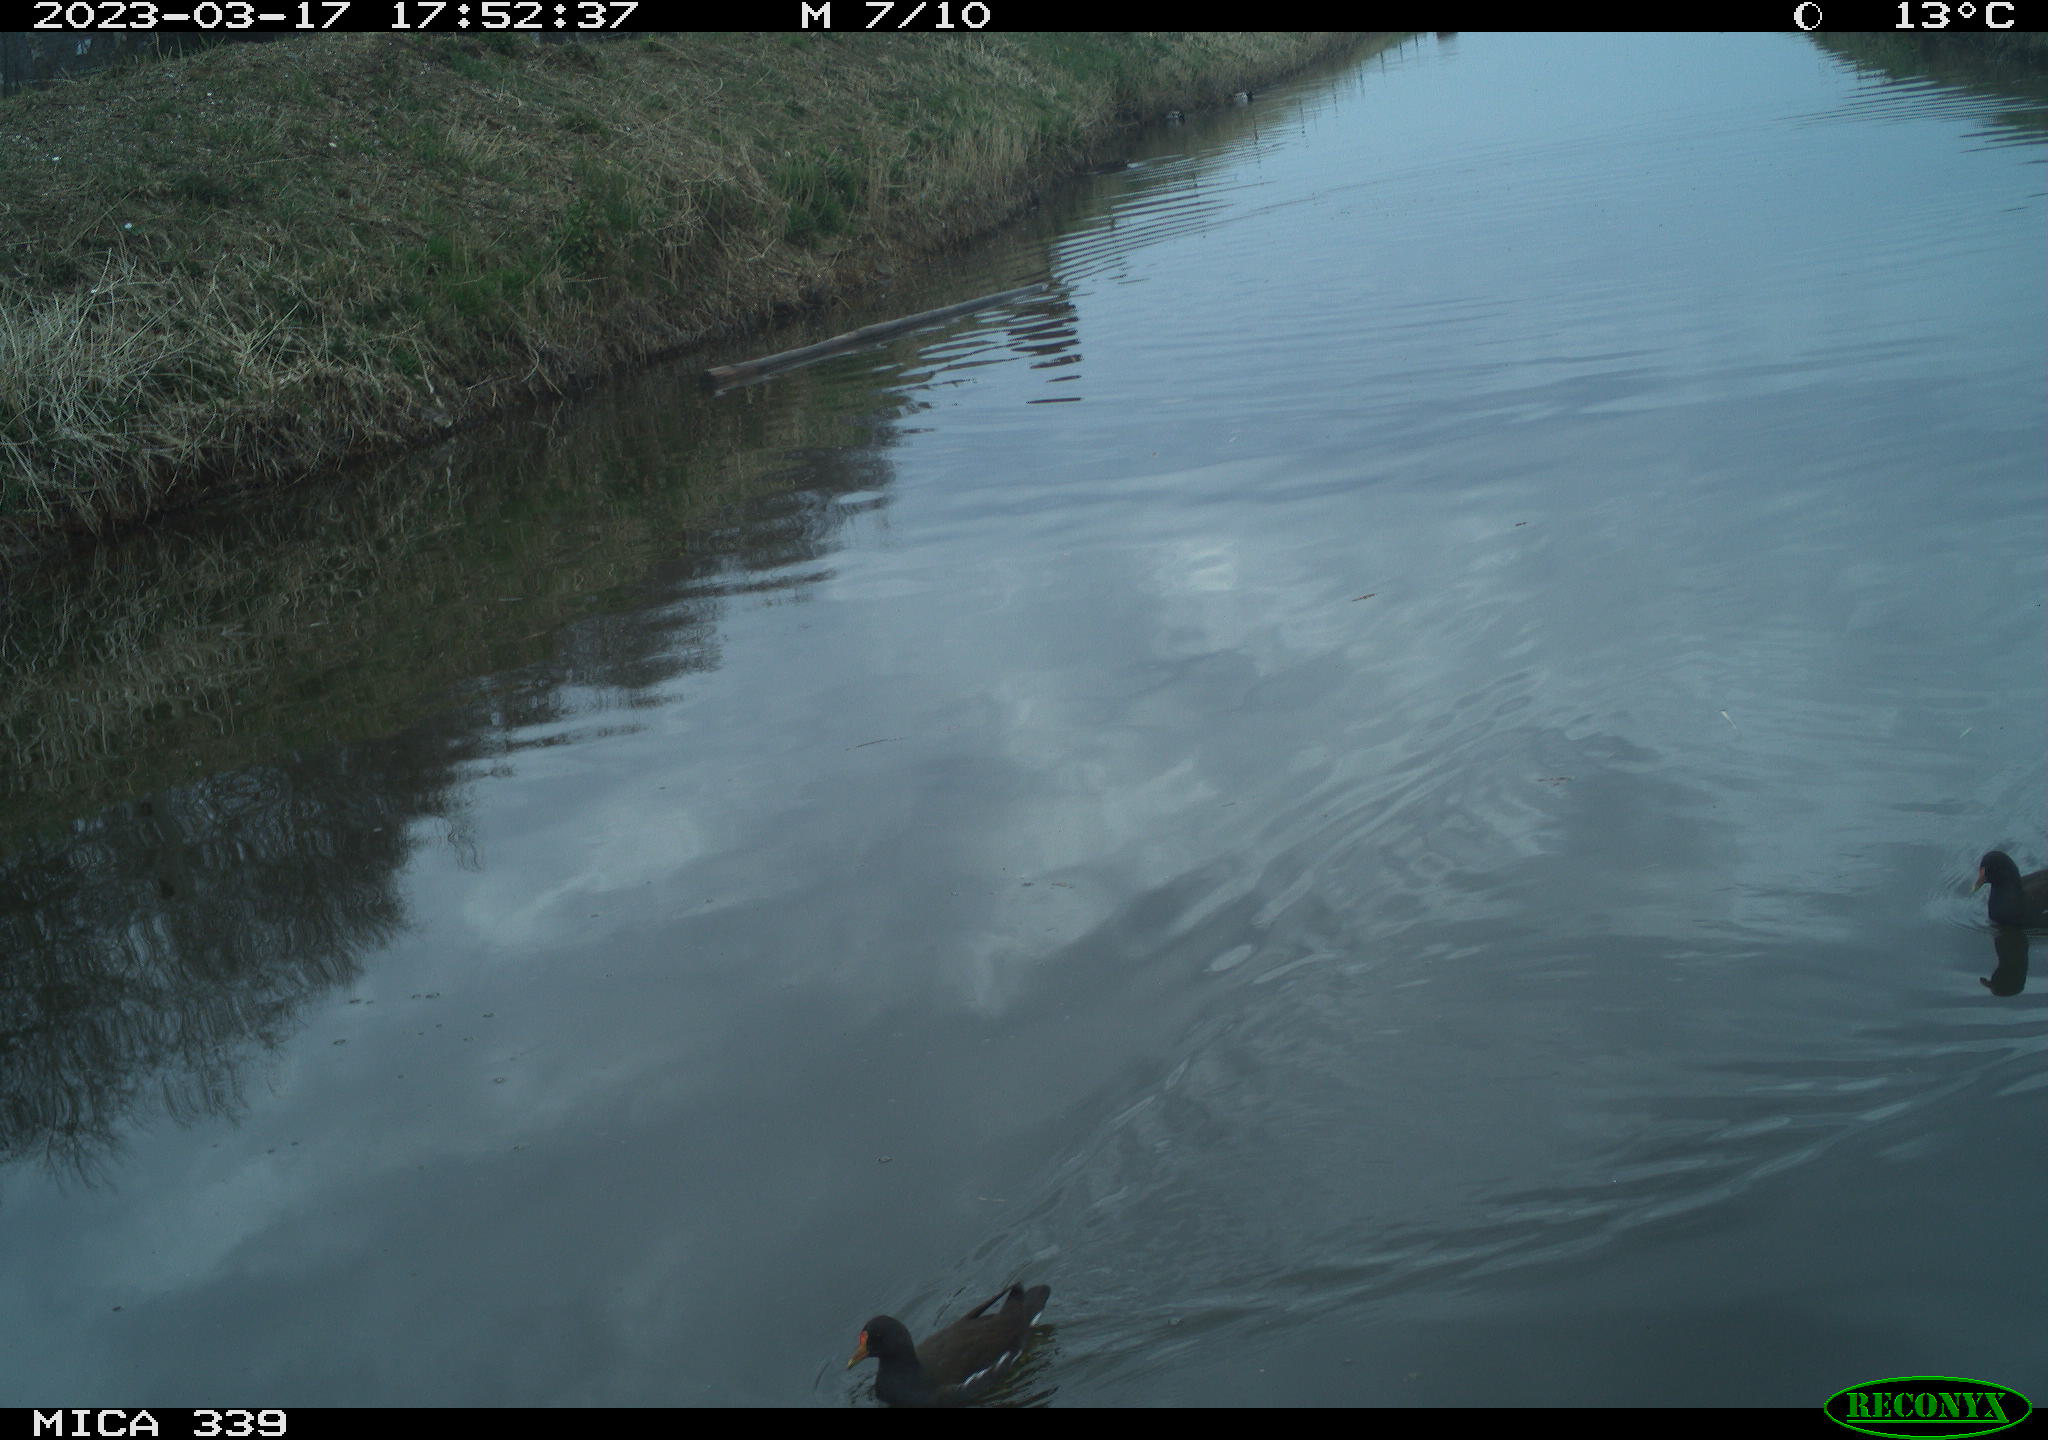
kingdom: Animalia
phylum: Chordata
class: Aves
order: Gruiformes
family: Rallidae
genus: Gallinula
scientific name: Gallinula chloropus
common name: Common moorhen
